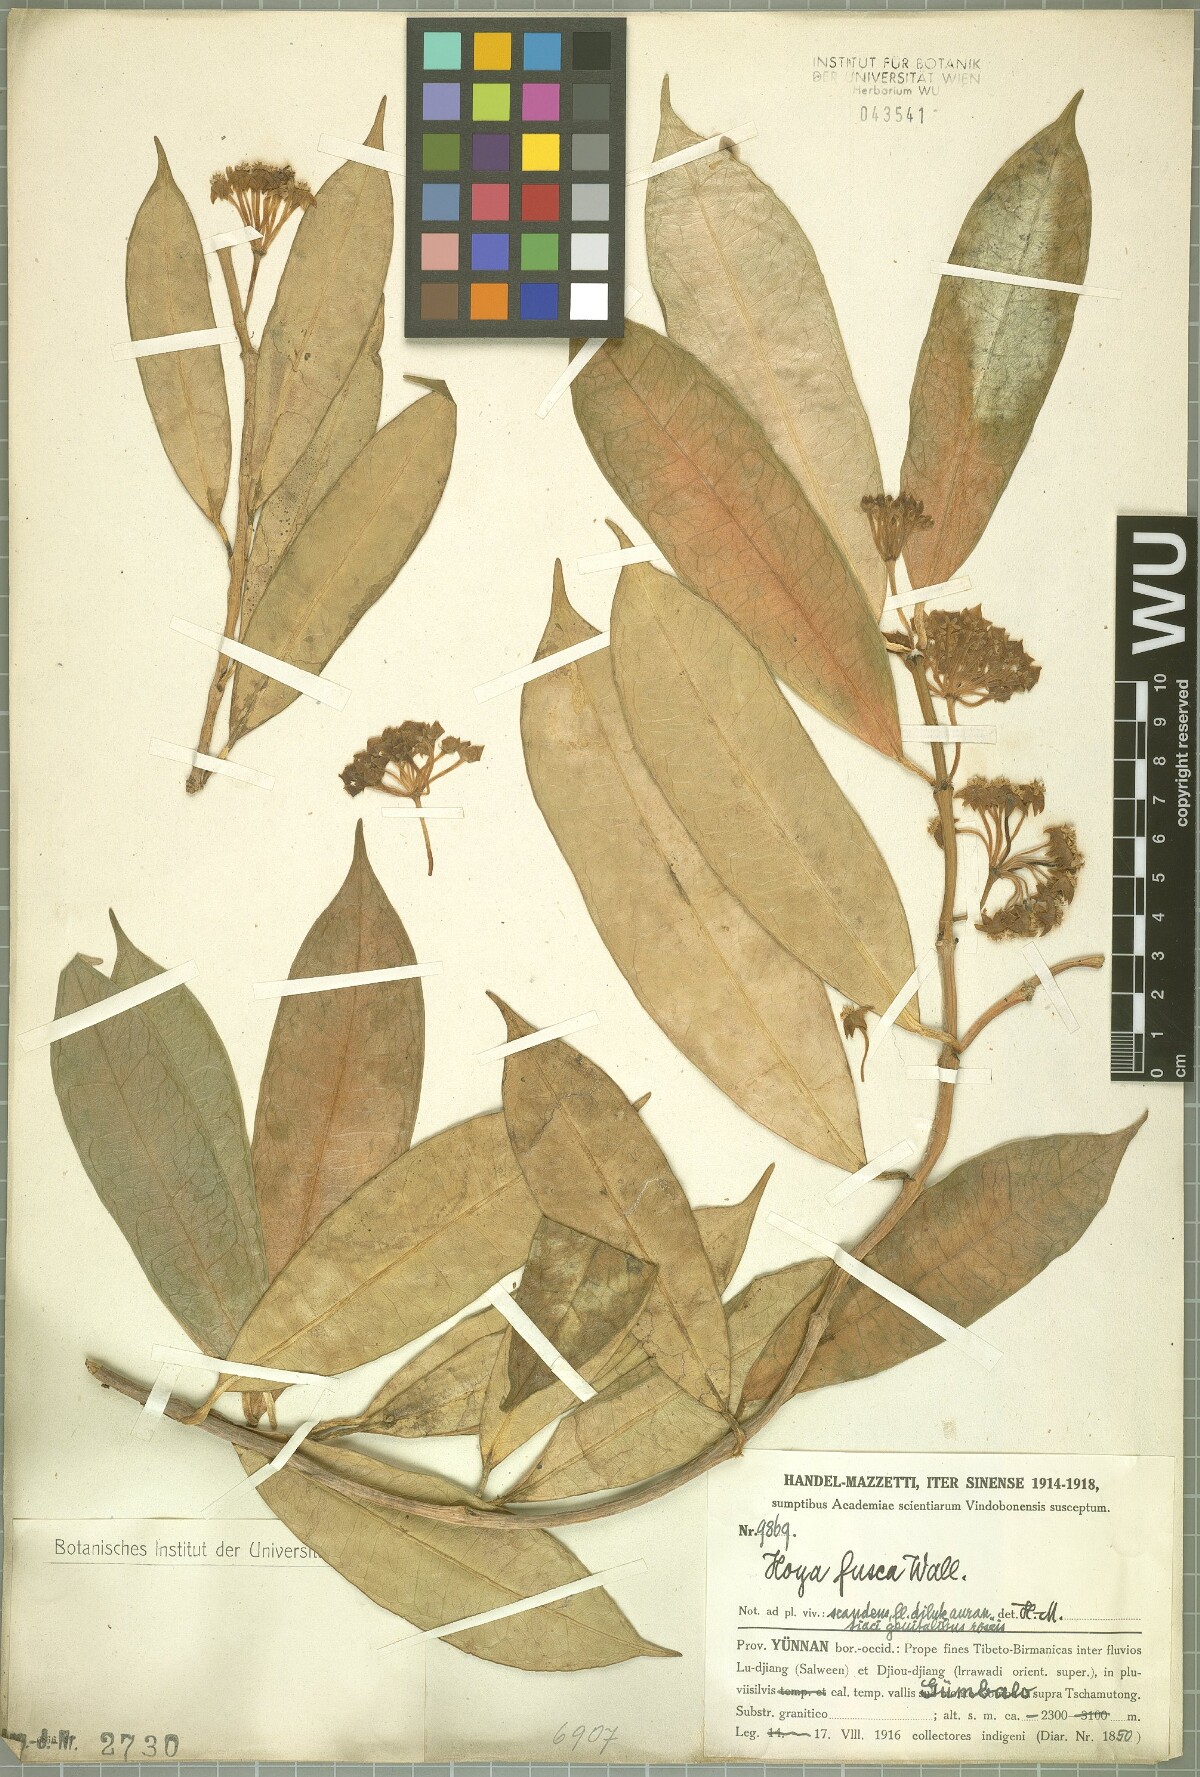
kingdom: Plantae
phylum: Tracheophyta
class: Magnoliopsida
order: Gentianales
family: Apocynaceae
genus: Hoya
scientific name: Hoya fusca
